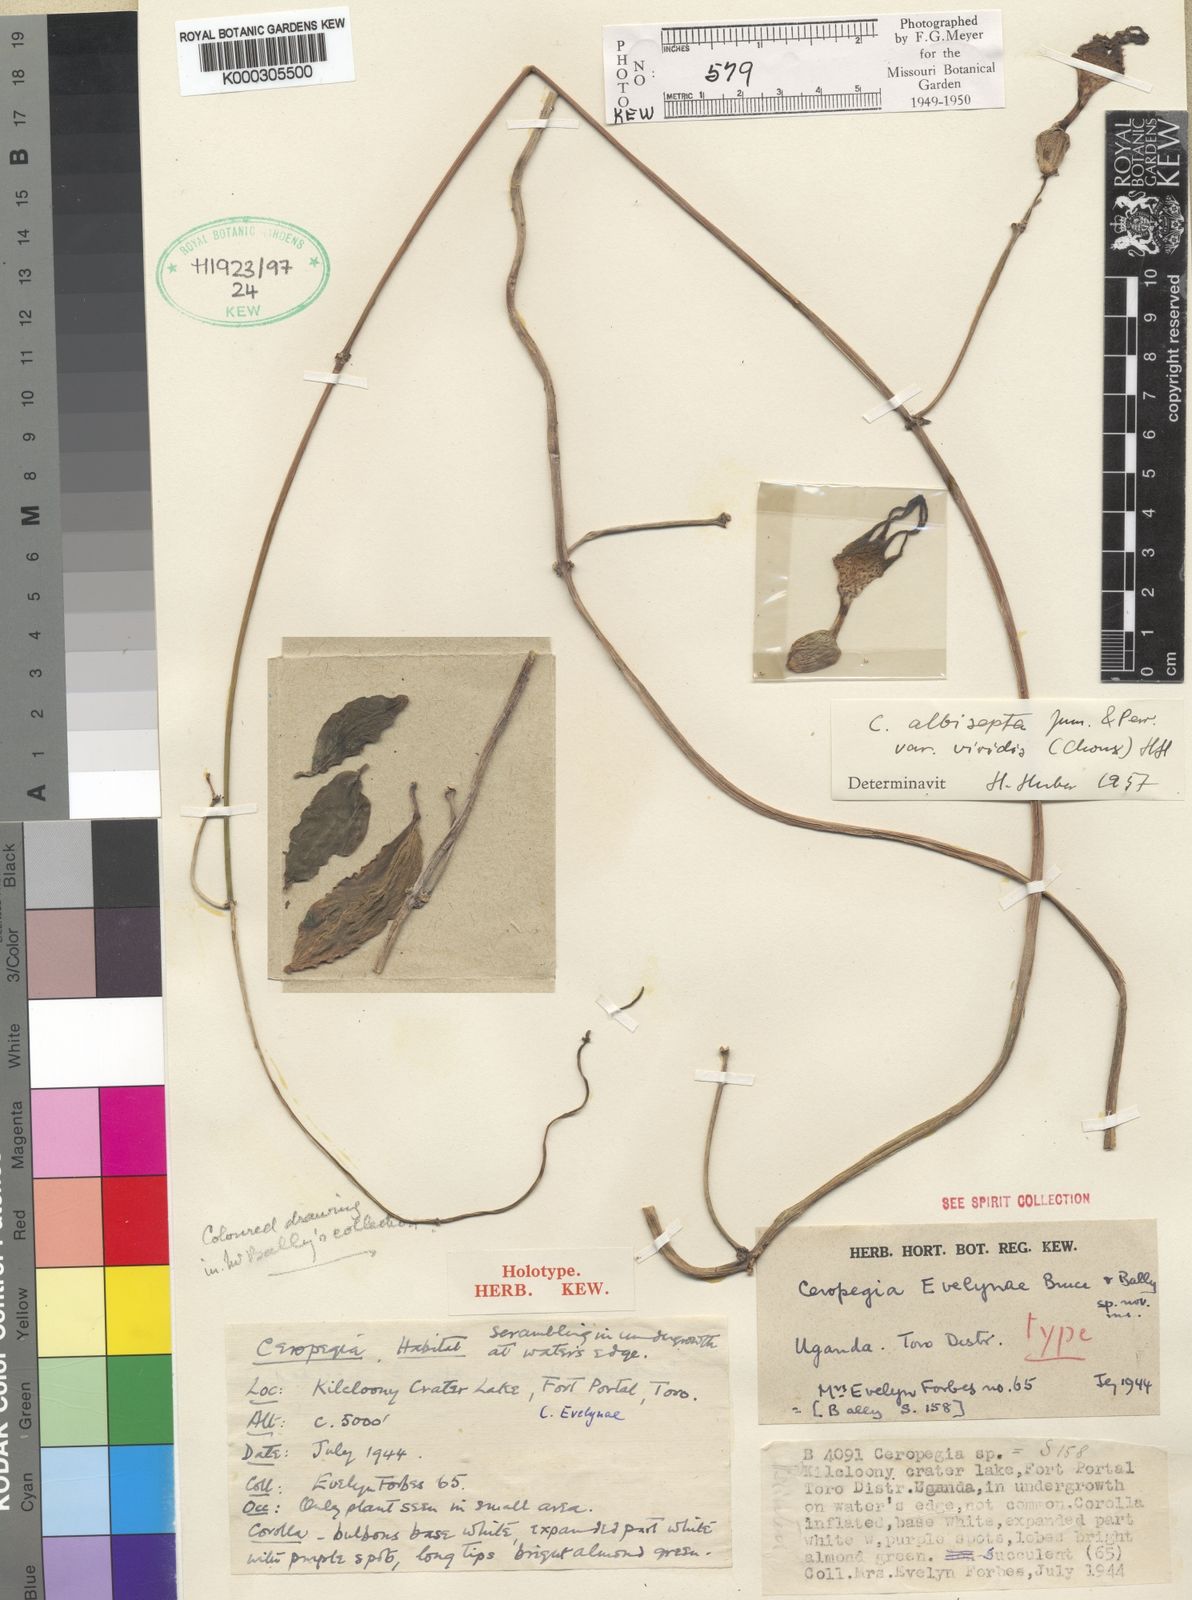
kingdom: Plantae
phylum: Tracheophyta
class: Magnoliopsida
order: Gentianales
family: Apocynaceae
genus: Ceropegia
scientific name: Ceropegia albisepta
